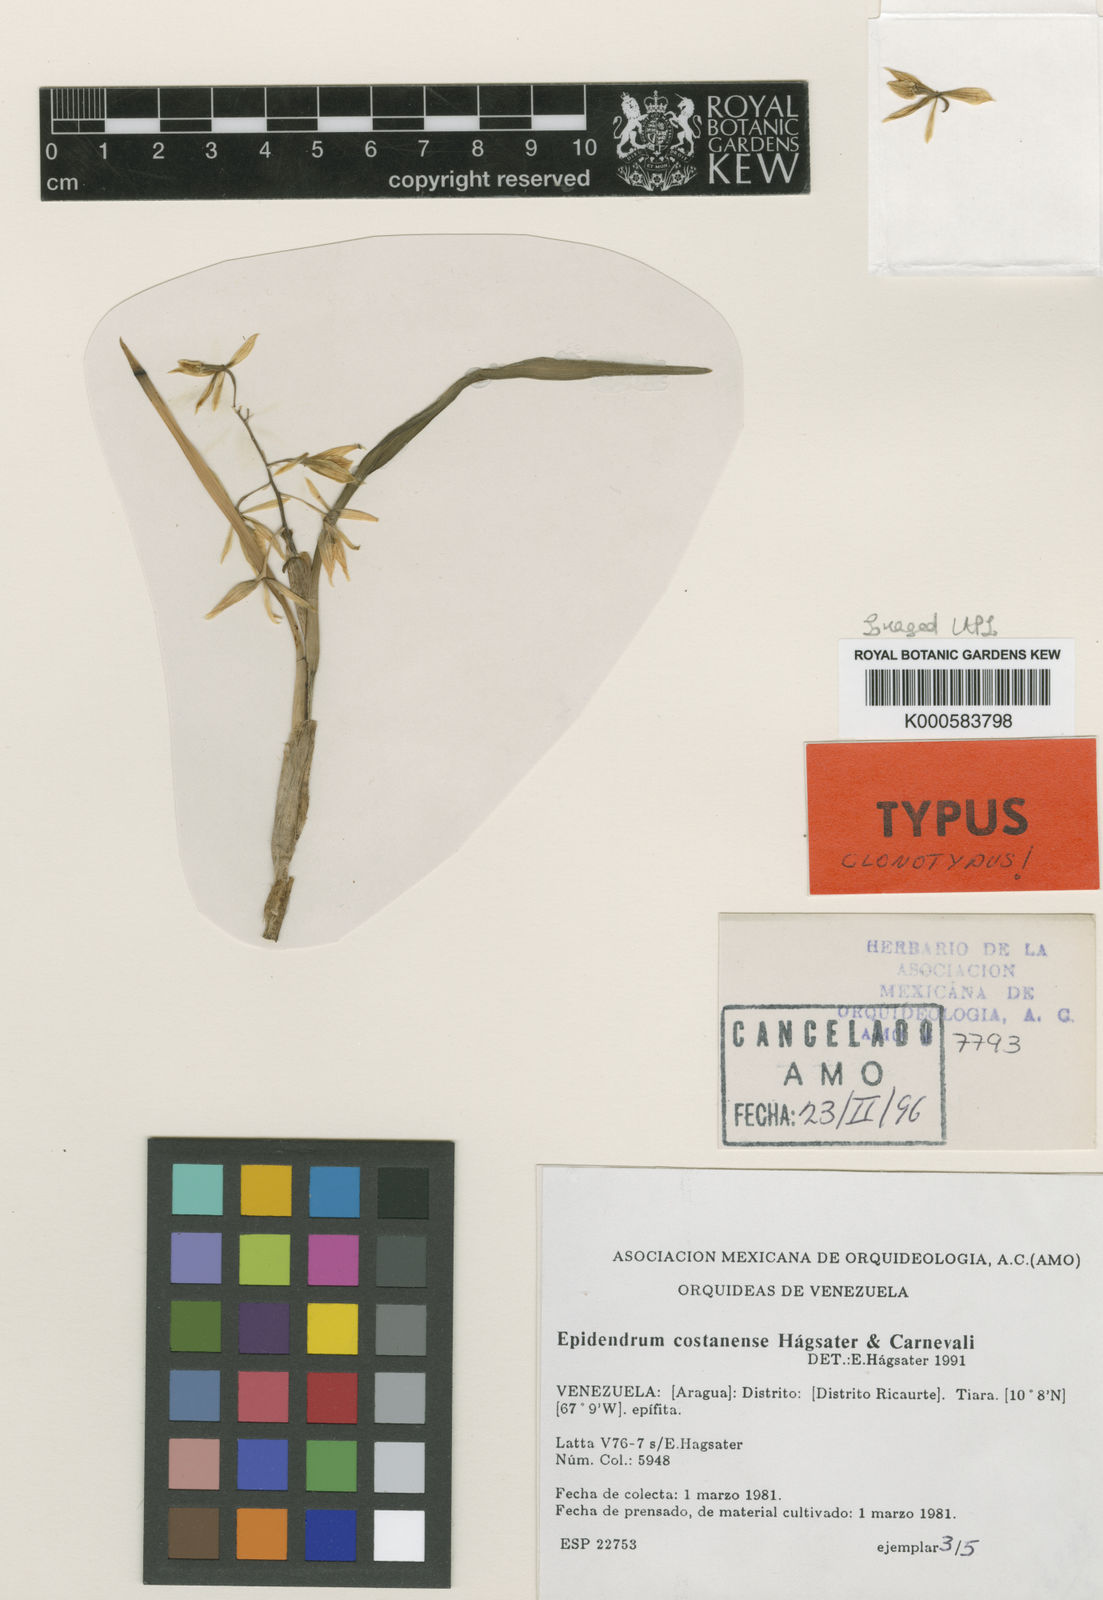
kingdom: Plantae
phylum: Tracheophyta
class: Liliopsida
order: Asparagales
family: Orchidaceae
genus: Epidendrum
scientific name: Epidendrum
